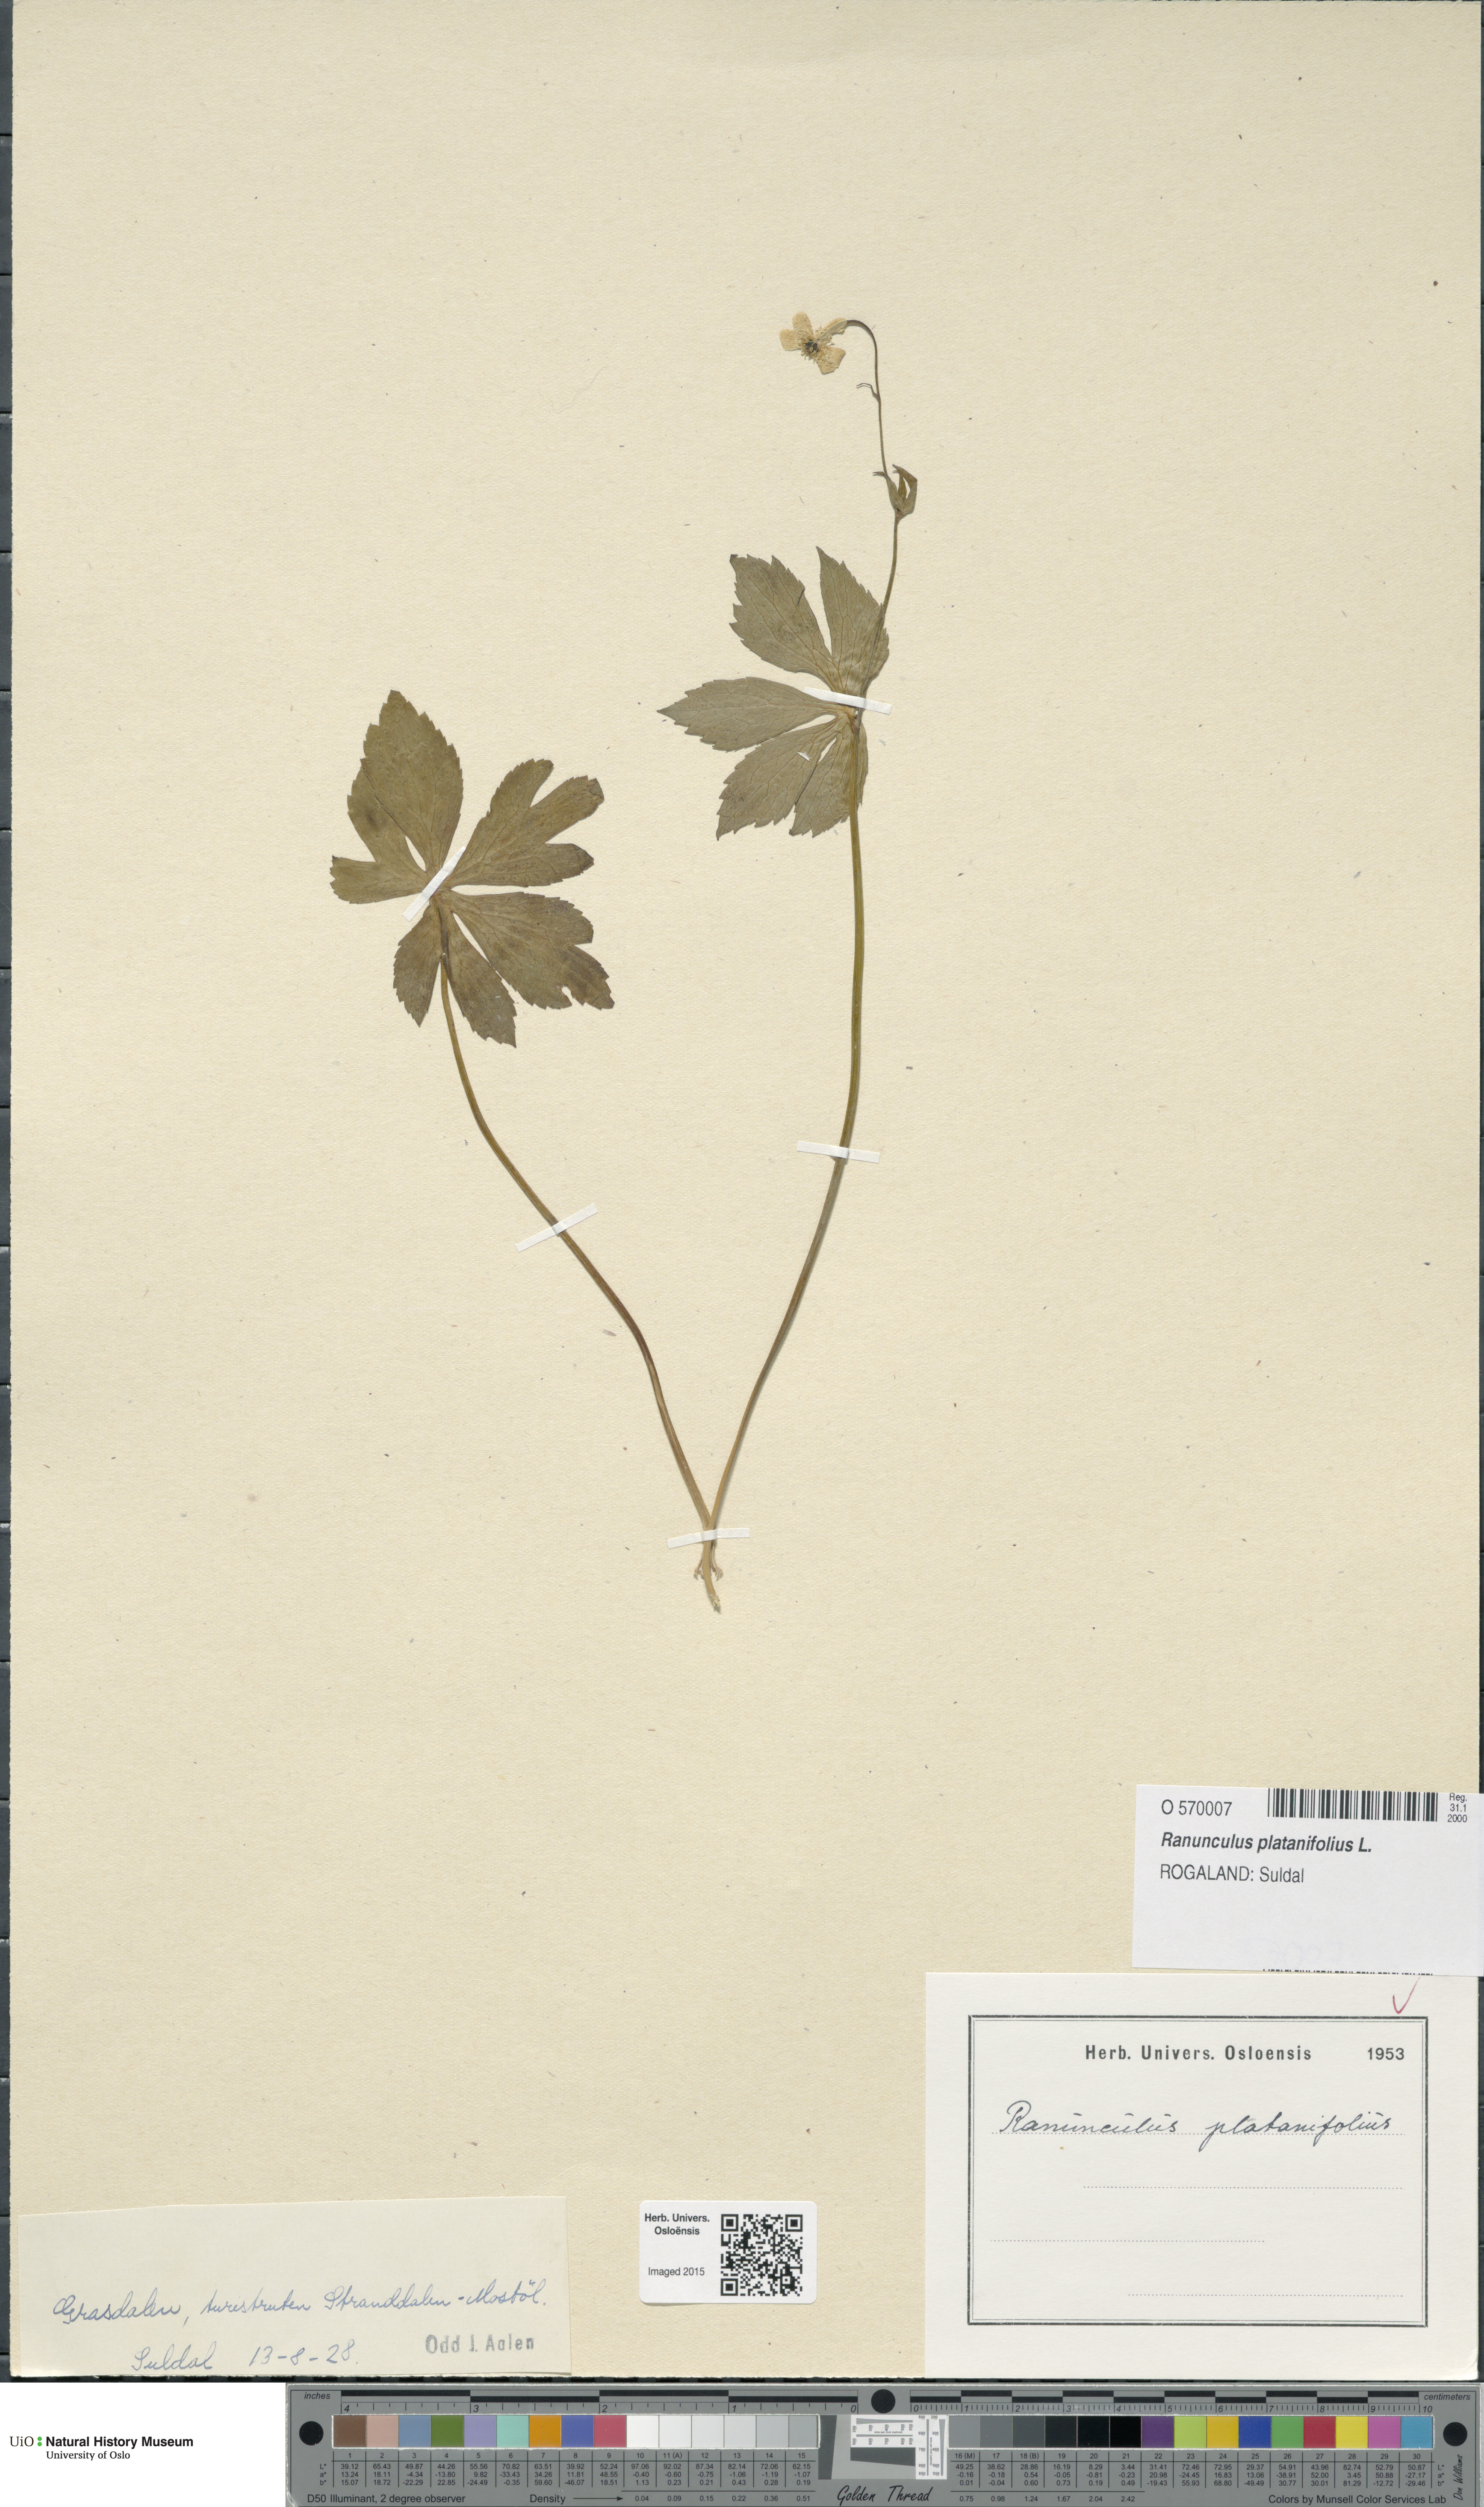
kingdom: Plantae
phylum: Tracheophyta
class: Magnoliopsida
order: Ranunculales
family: Ranunculaceae
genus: Ranunculus
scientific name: Ranunculus platanifolius
